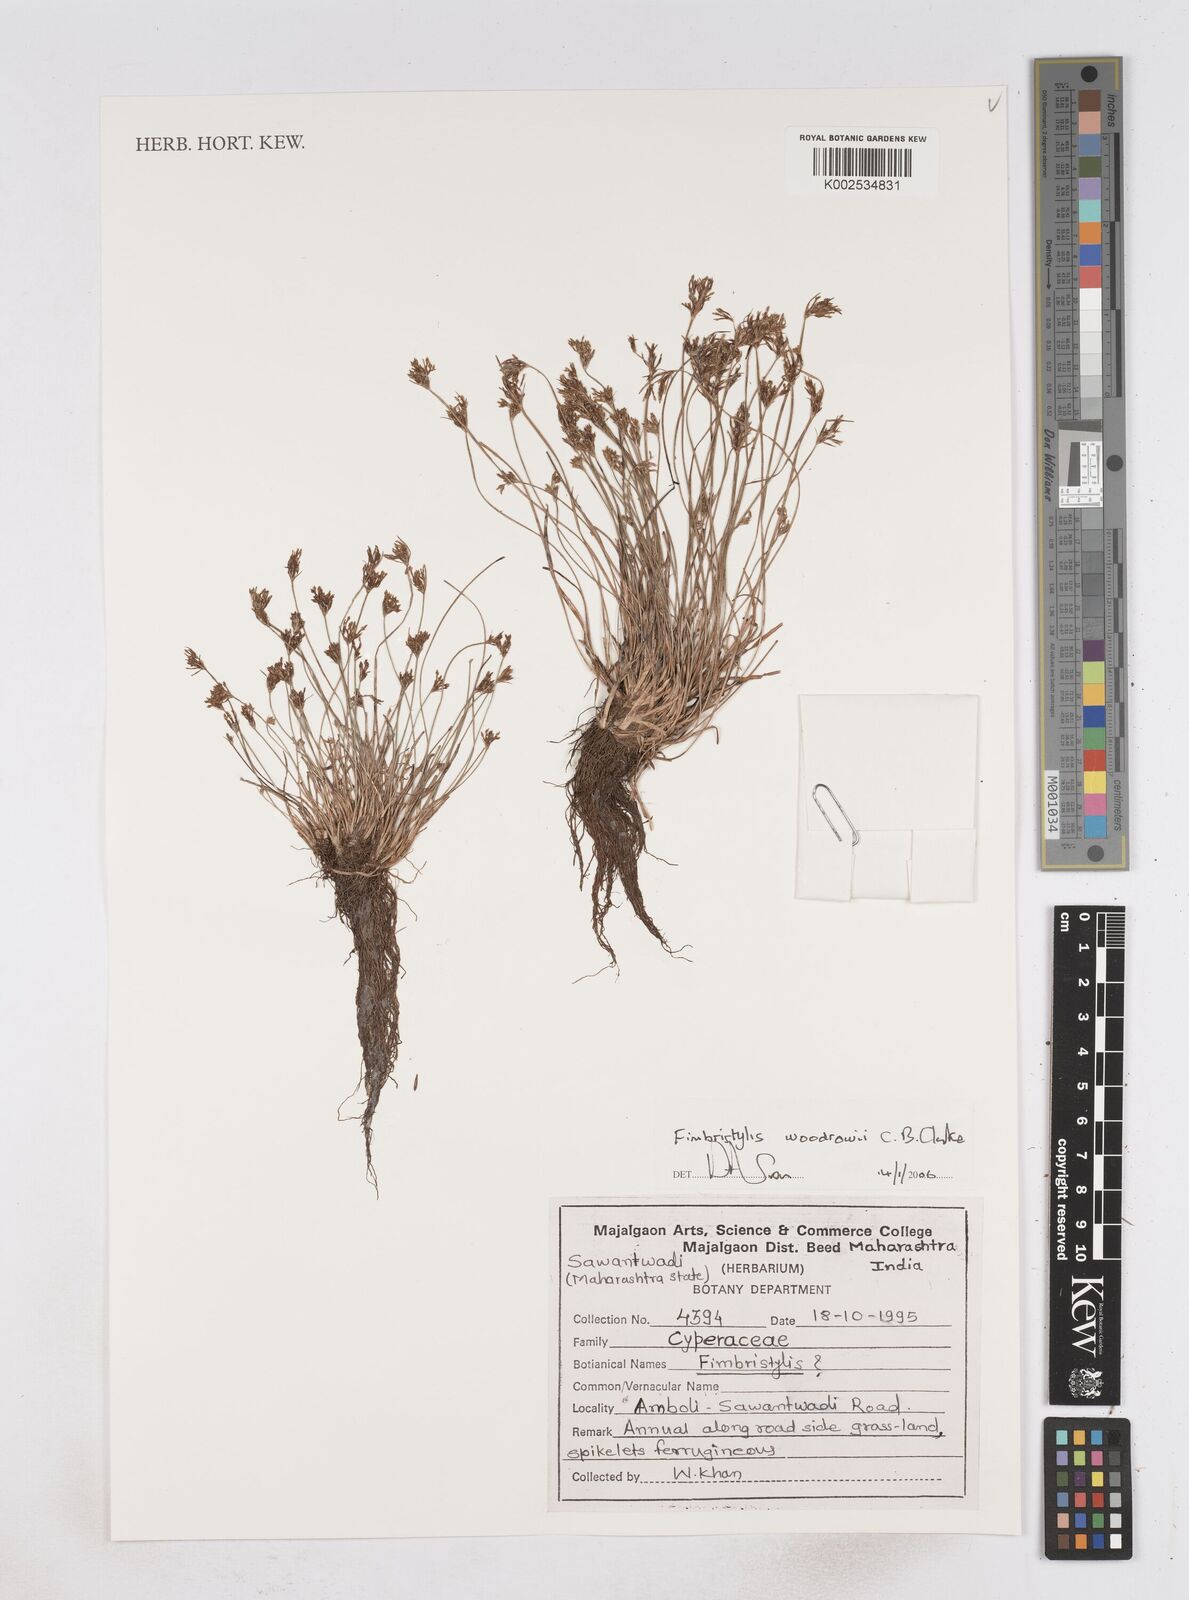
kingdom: Plantae
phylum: Tracheophyta
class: Liliopsida
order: Poales
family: Cyperaceae
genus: Fimbristylis
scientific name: Fimbristylis woodrowii
